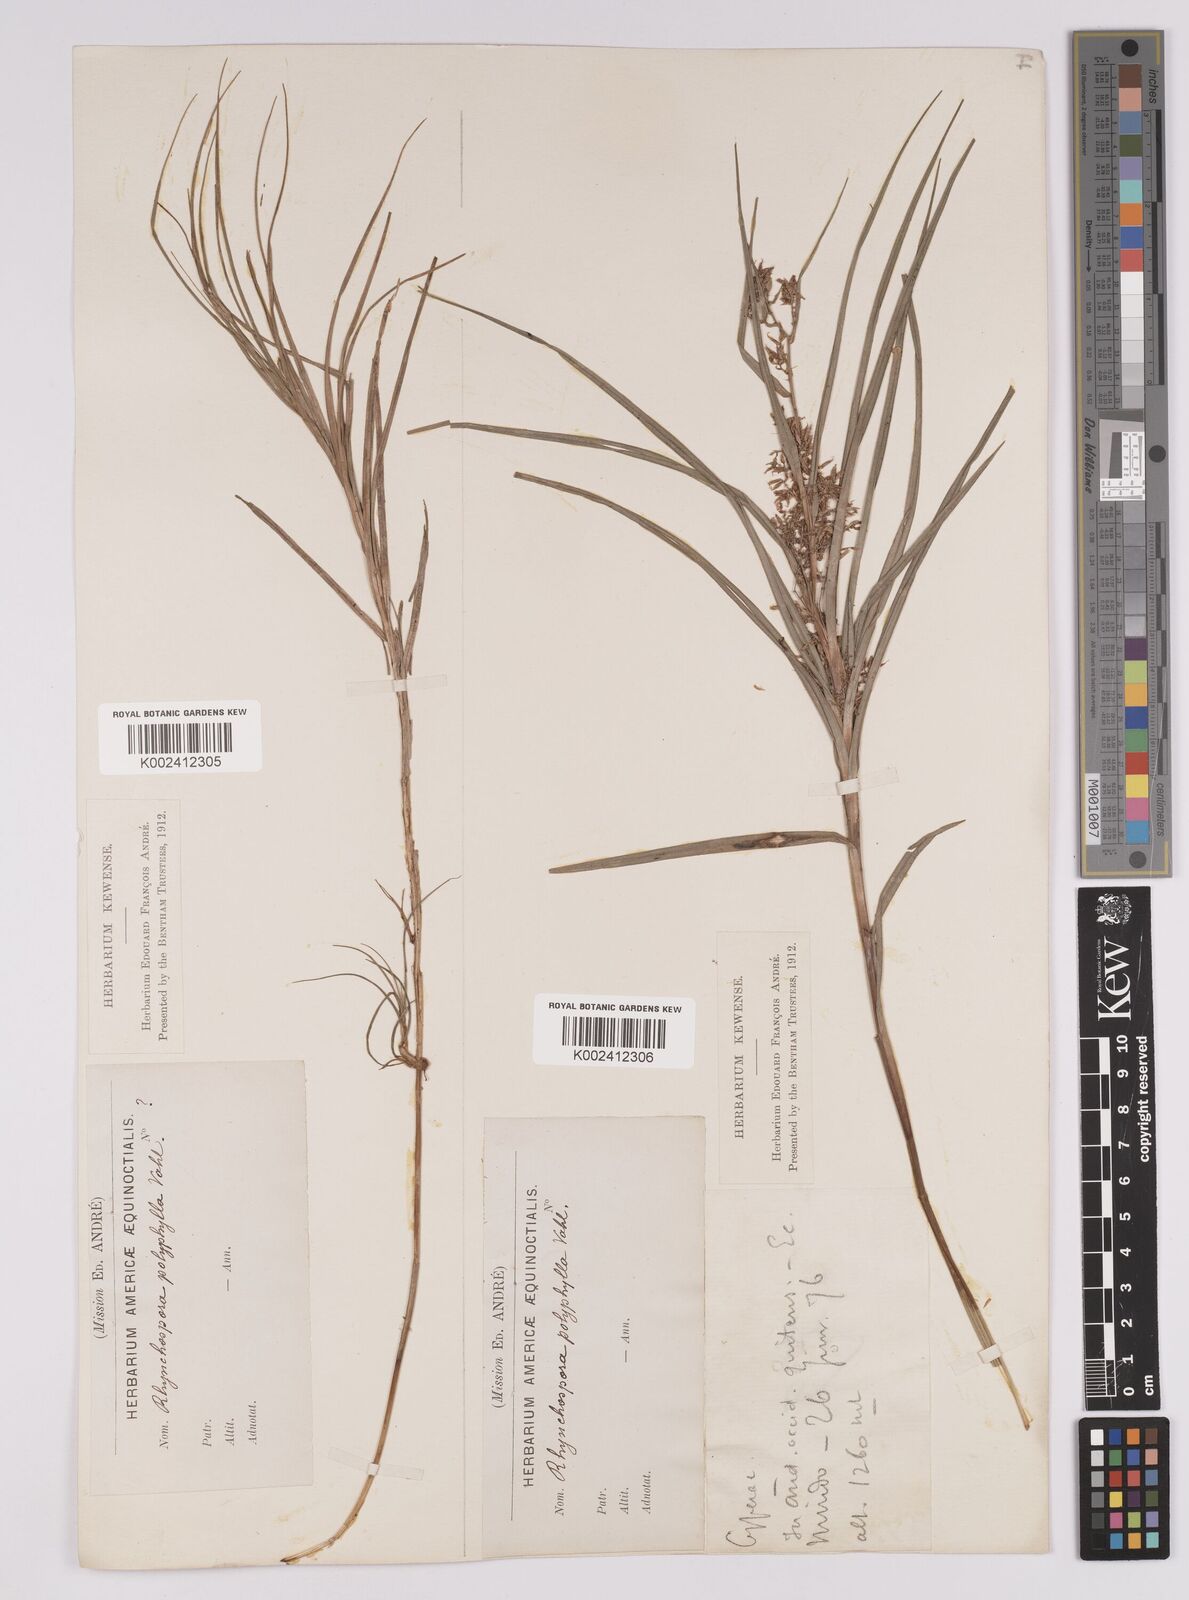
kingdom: Plantae
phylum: Tracheophyta
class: Liliopsida
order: Poales
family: Cyperaceae
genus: Rhynchospora
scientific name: Rhynchospora polyphylla
